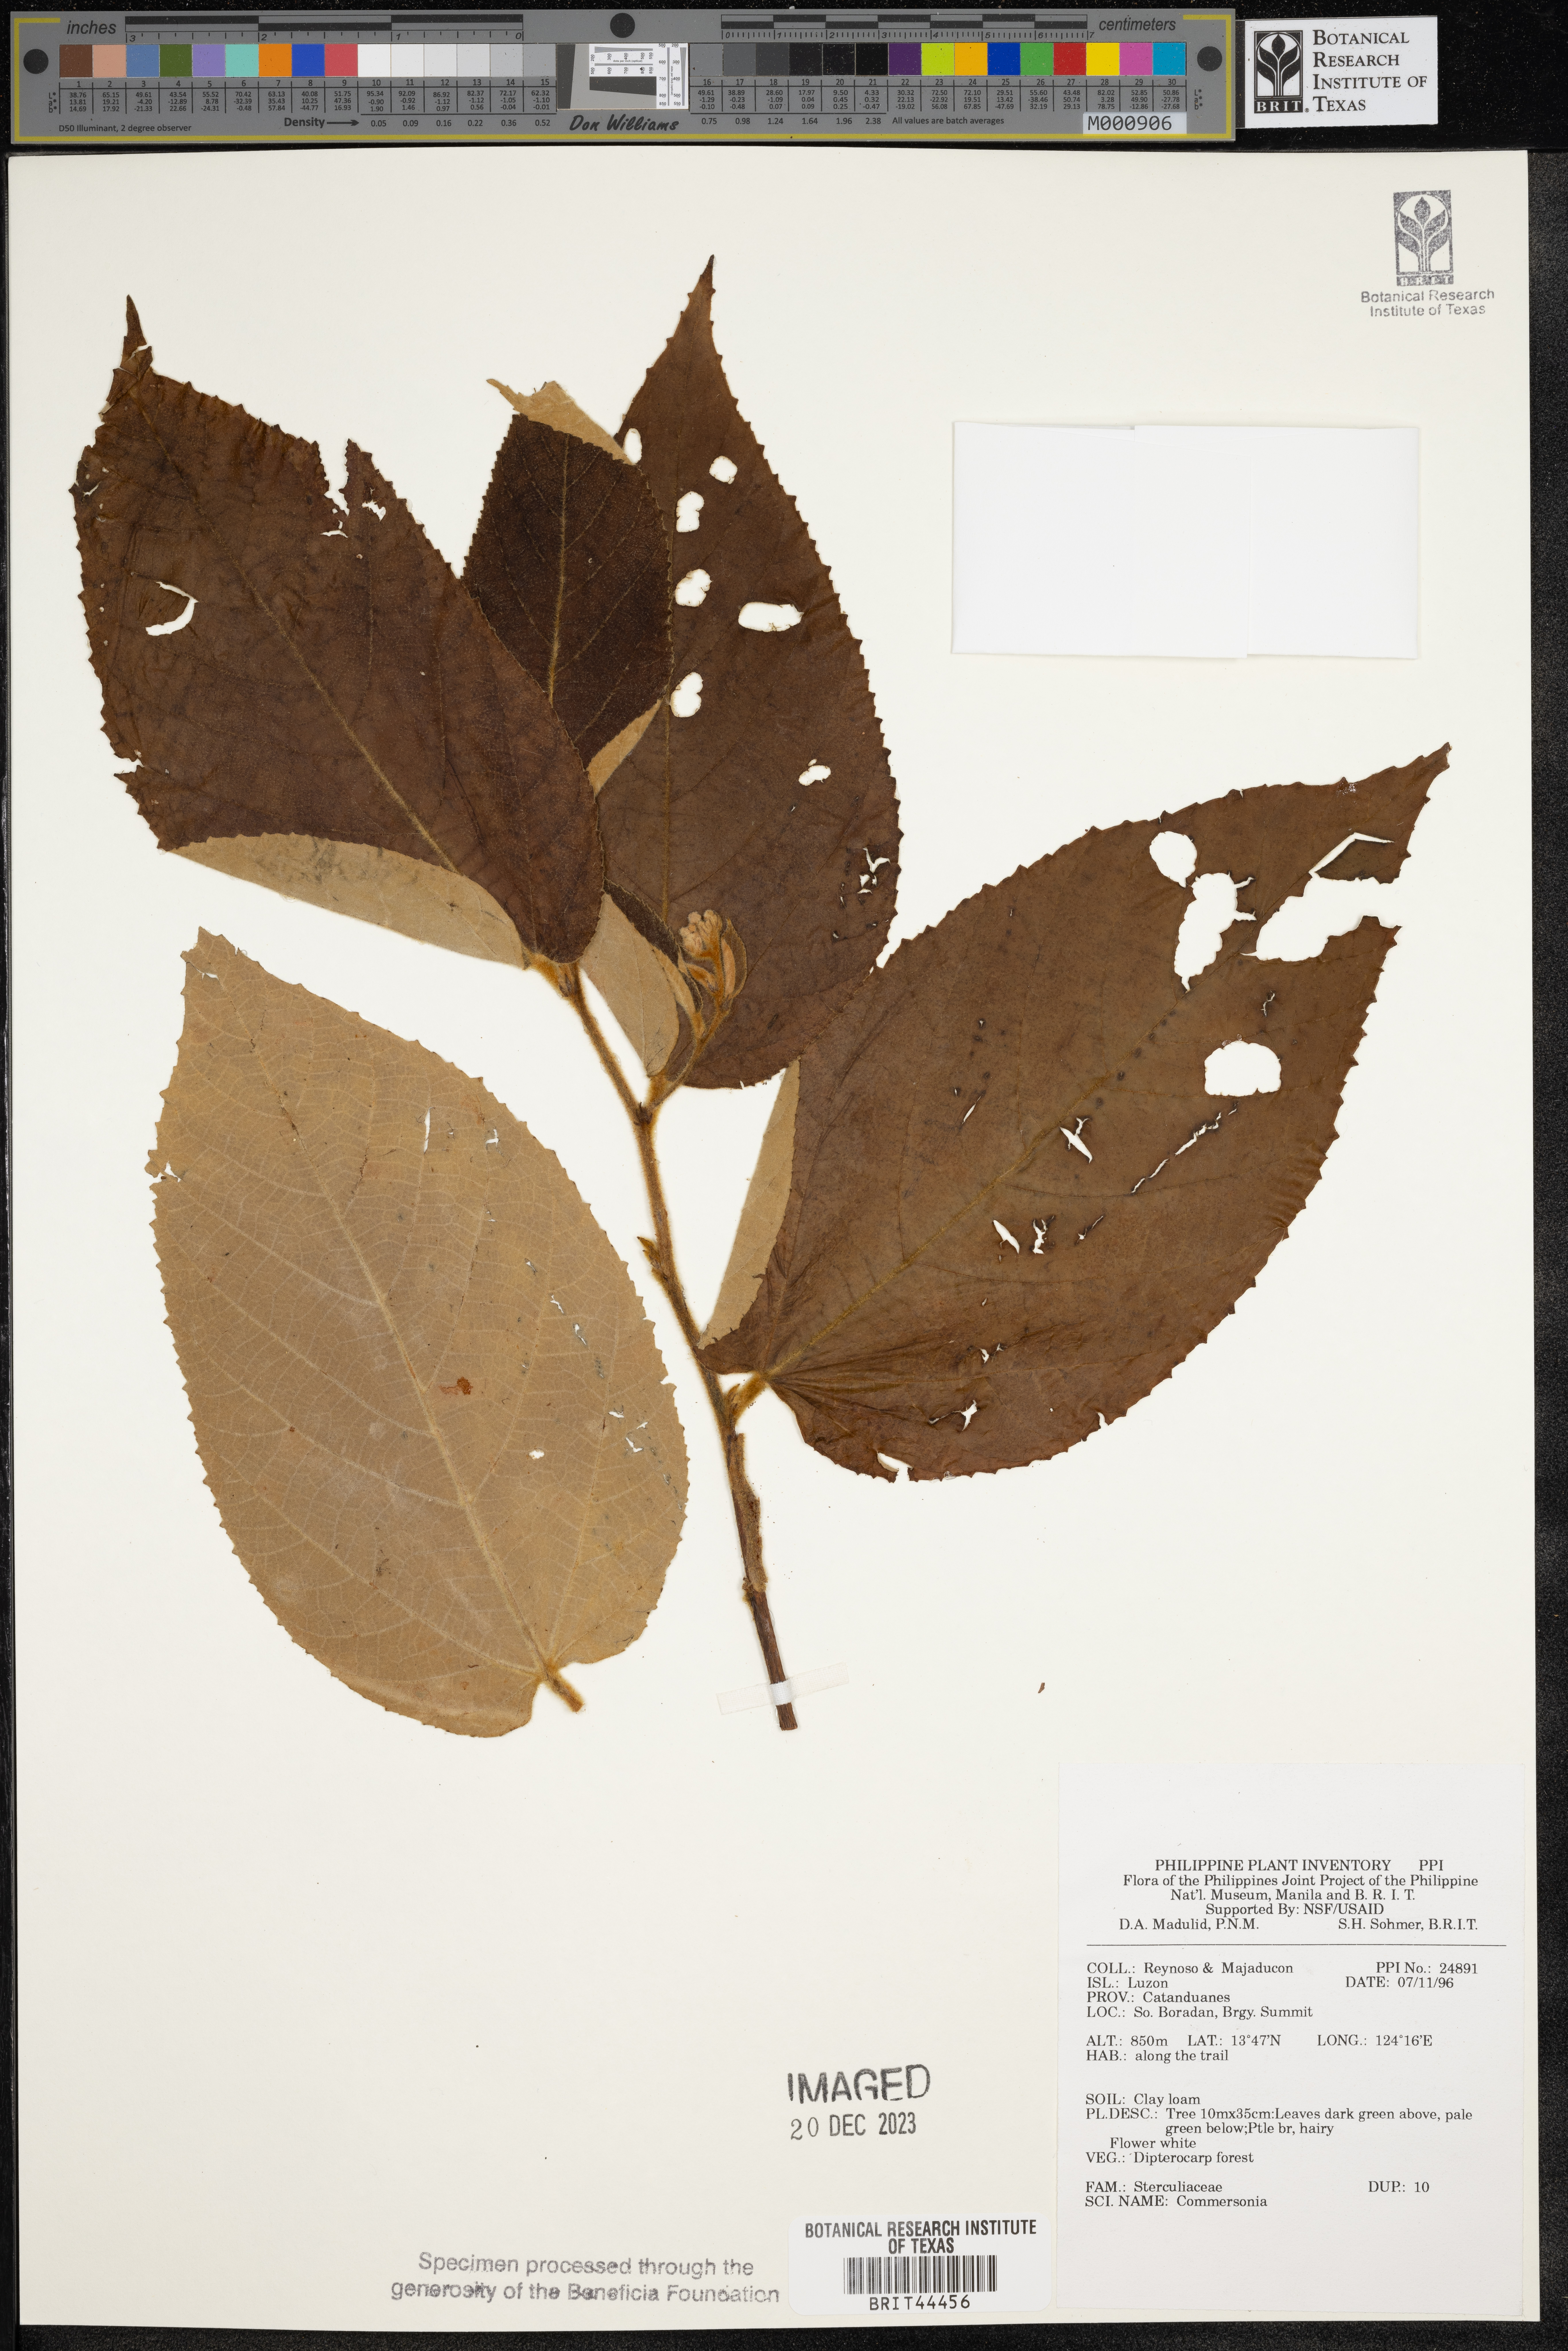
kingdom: Plantae
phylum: Tracheophyta
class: Magnoliopsida
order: Malvales
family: Malvaceae
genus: Commersonia
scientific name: Commersonia
